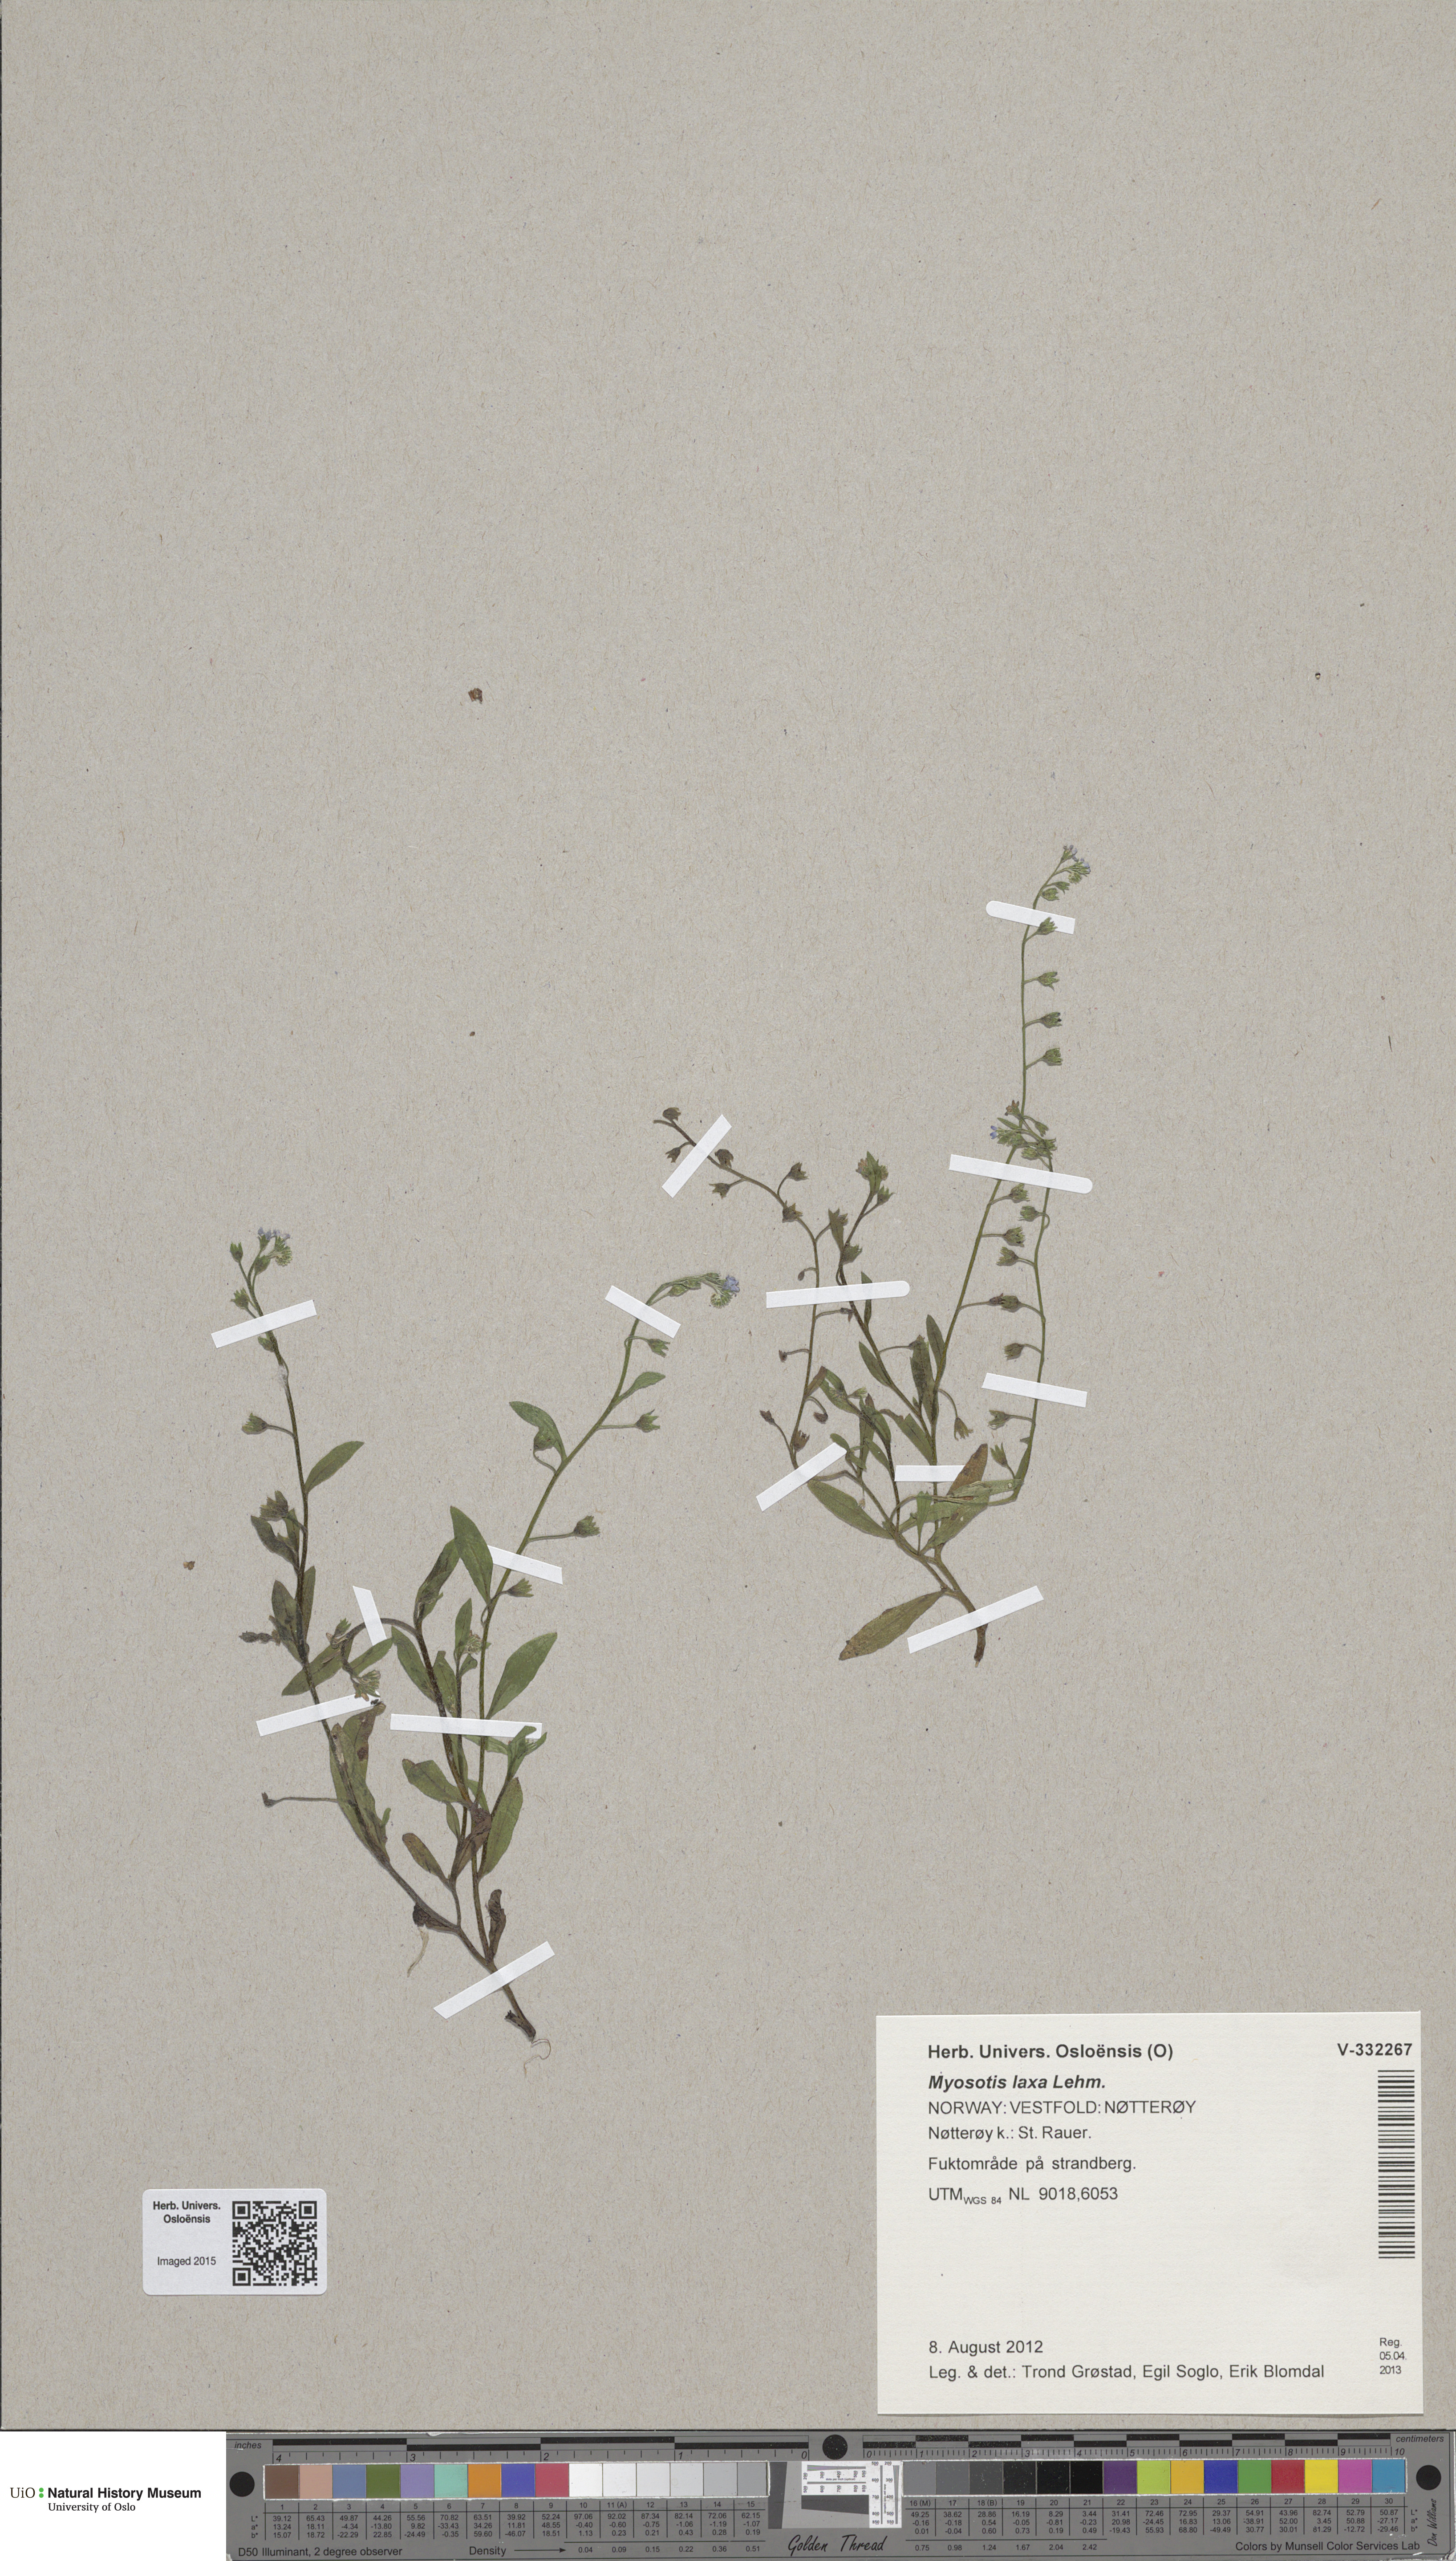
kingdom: Plantae
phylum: Tracheophyta
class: Magnoliopsida
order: Boraginales
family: Boraginaceae
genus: Myosotis
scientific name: Myosotis laxa
